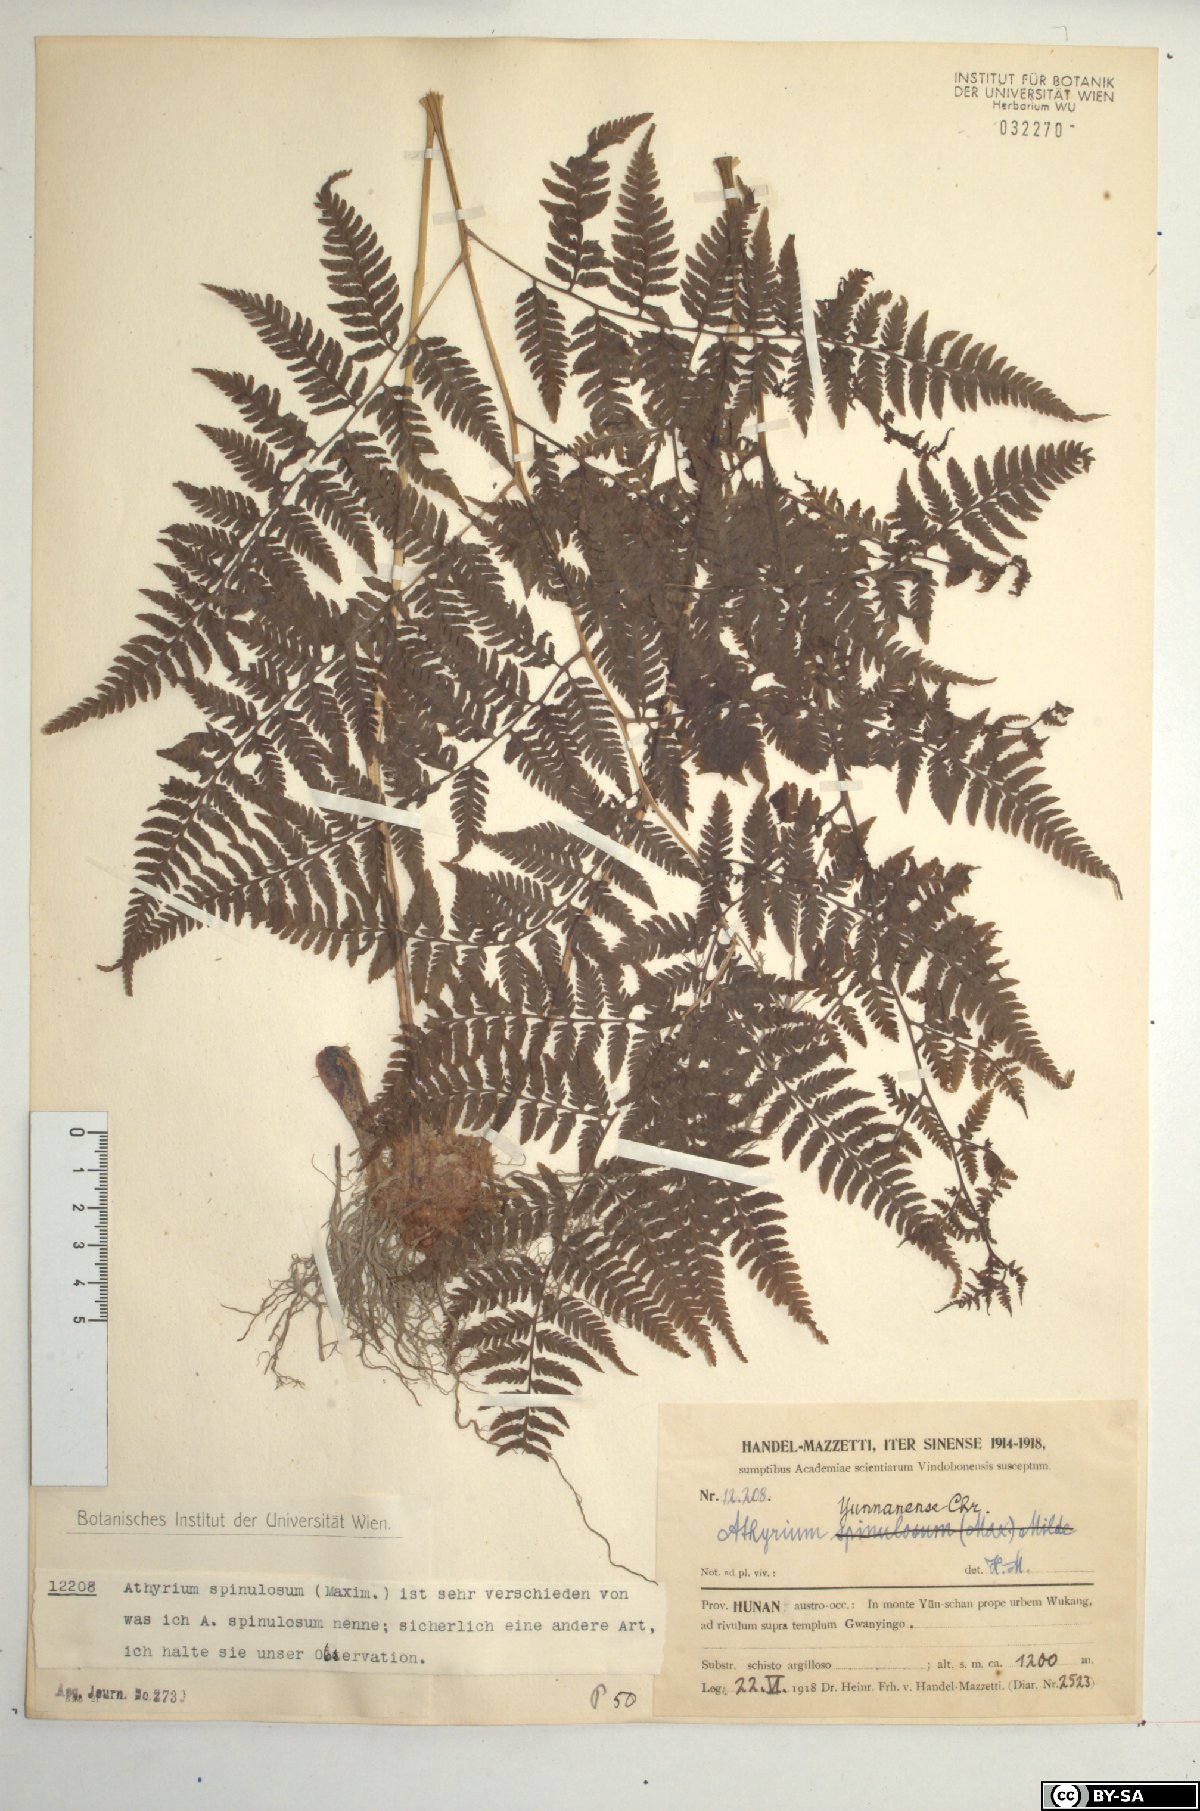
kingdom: Plantae
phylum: Tracheophyta
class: Polypodiopsida
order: Polypodiales
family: Athyriaceae
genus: Anisocampium
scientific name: Anisocampium niponicum
